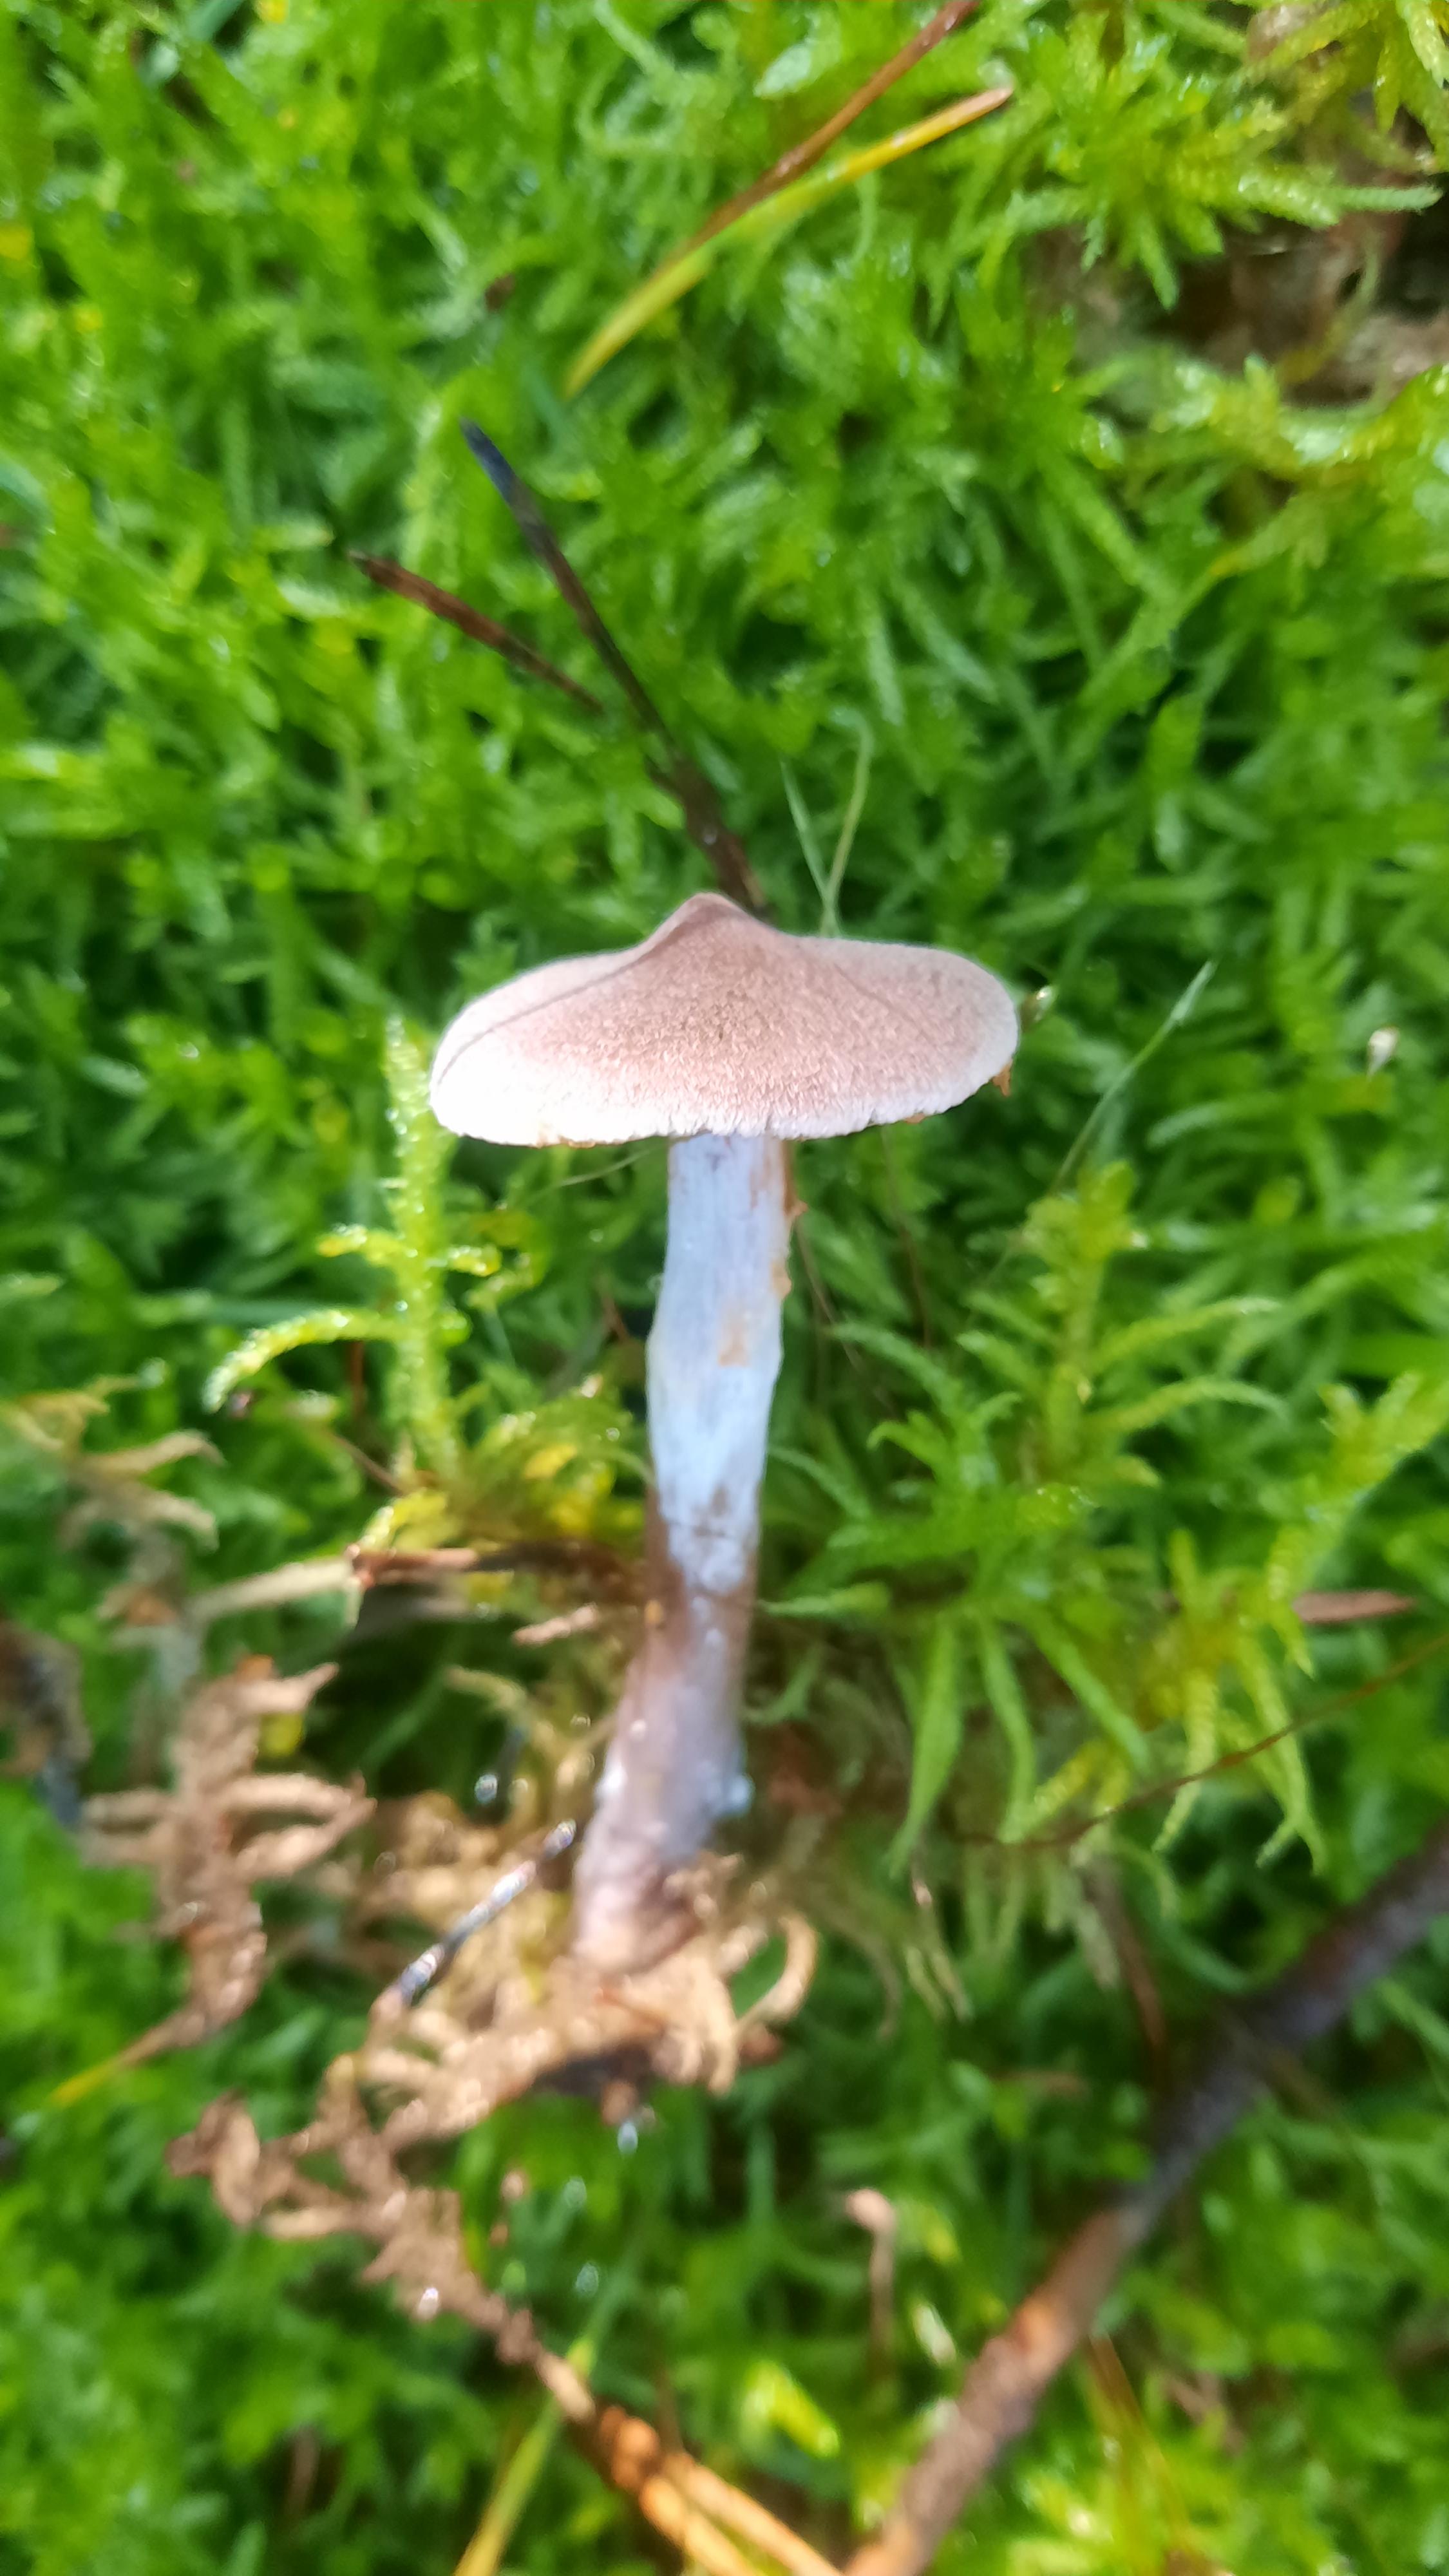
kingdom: Fungi
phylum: Basidiomycota
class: Agaricomycetes
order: Agaricales
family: Cortinariaceae
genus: Cortinarius
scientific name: Cortinarius
